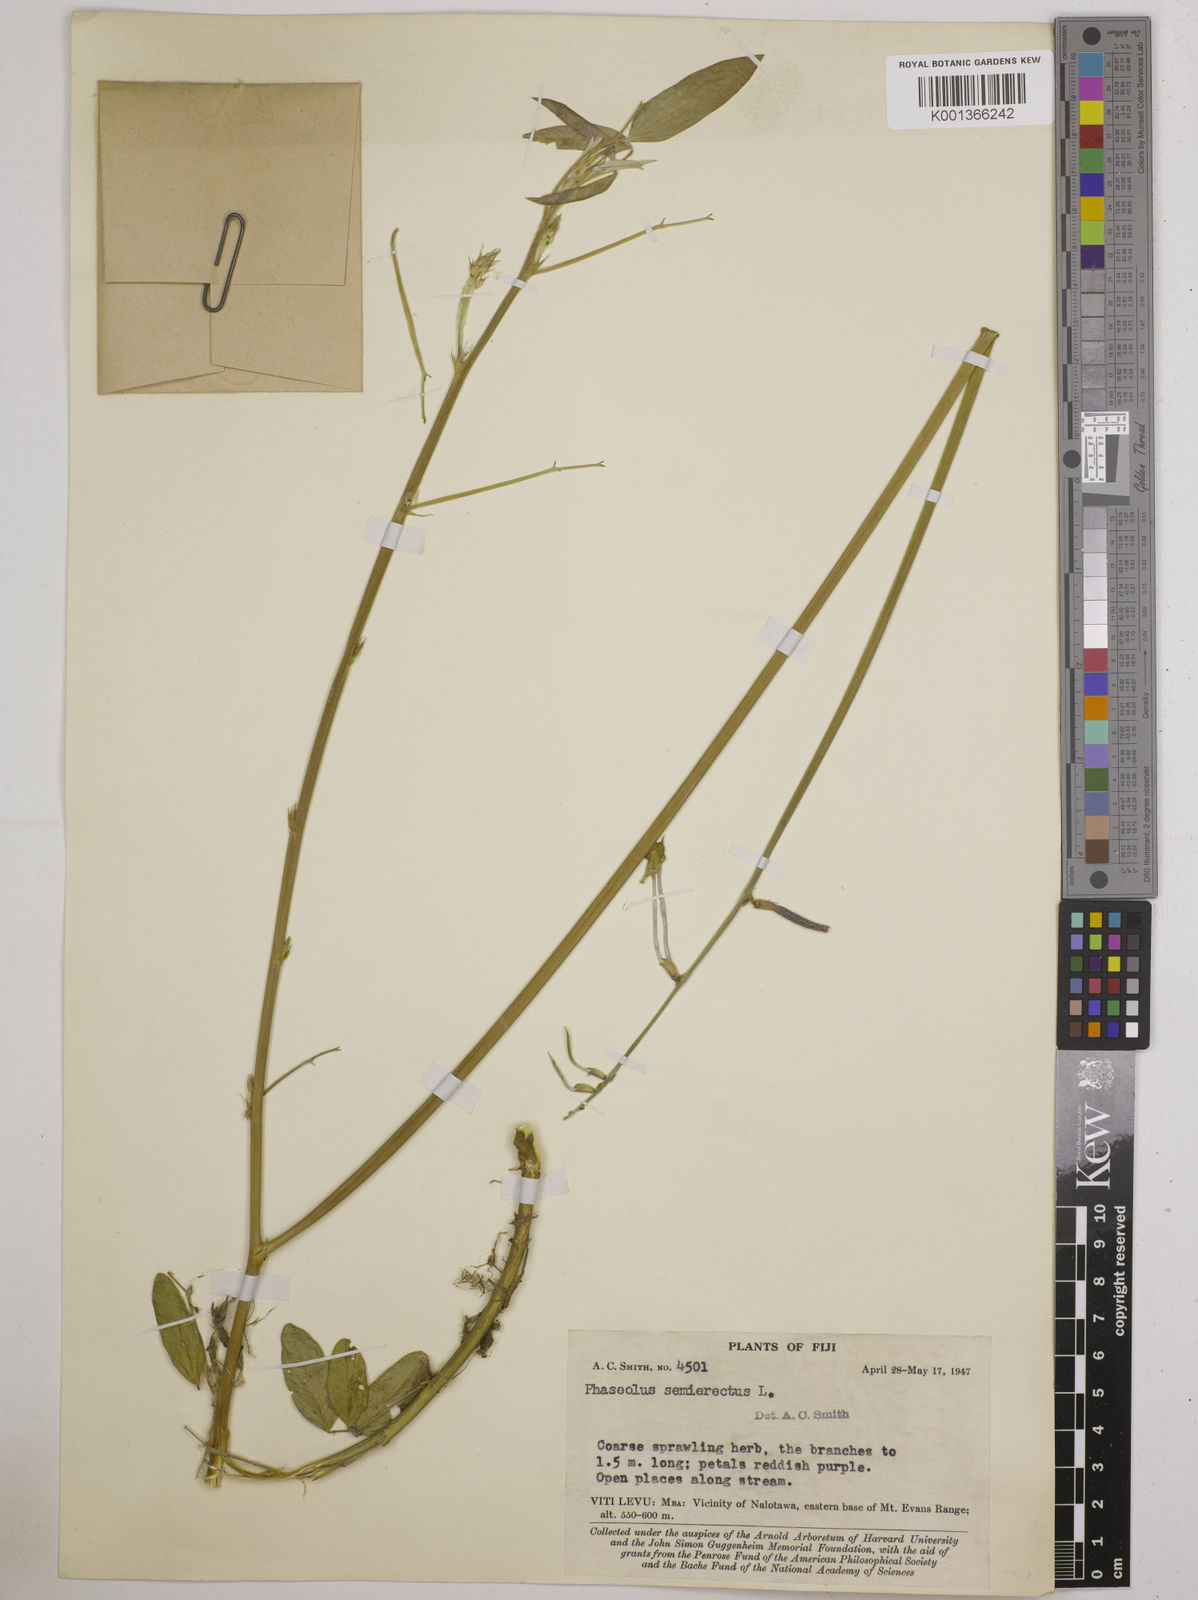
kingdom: Plantae
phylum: Tracheophyta
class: Magnoliopsida
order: Fabales
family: Fabaceae
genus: Macroptilium
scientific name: Macroptilium lathyroides
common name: Wild bushbean
